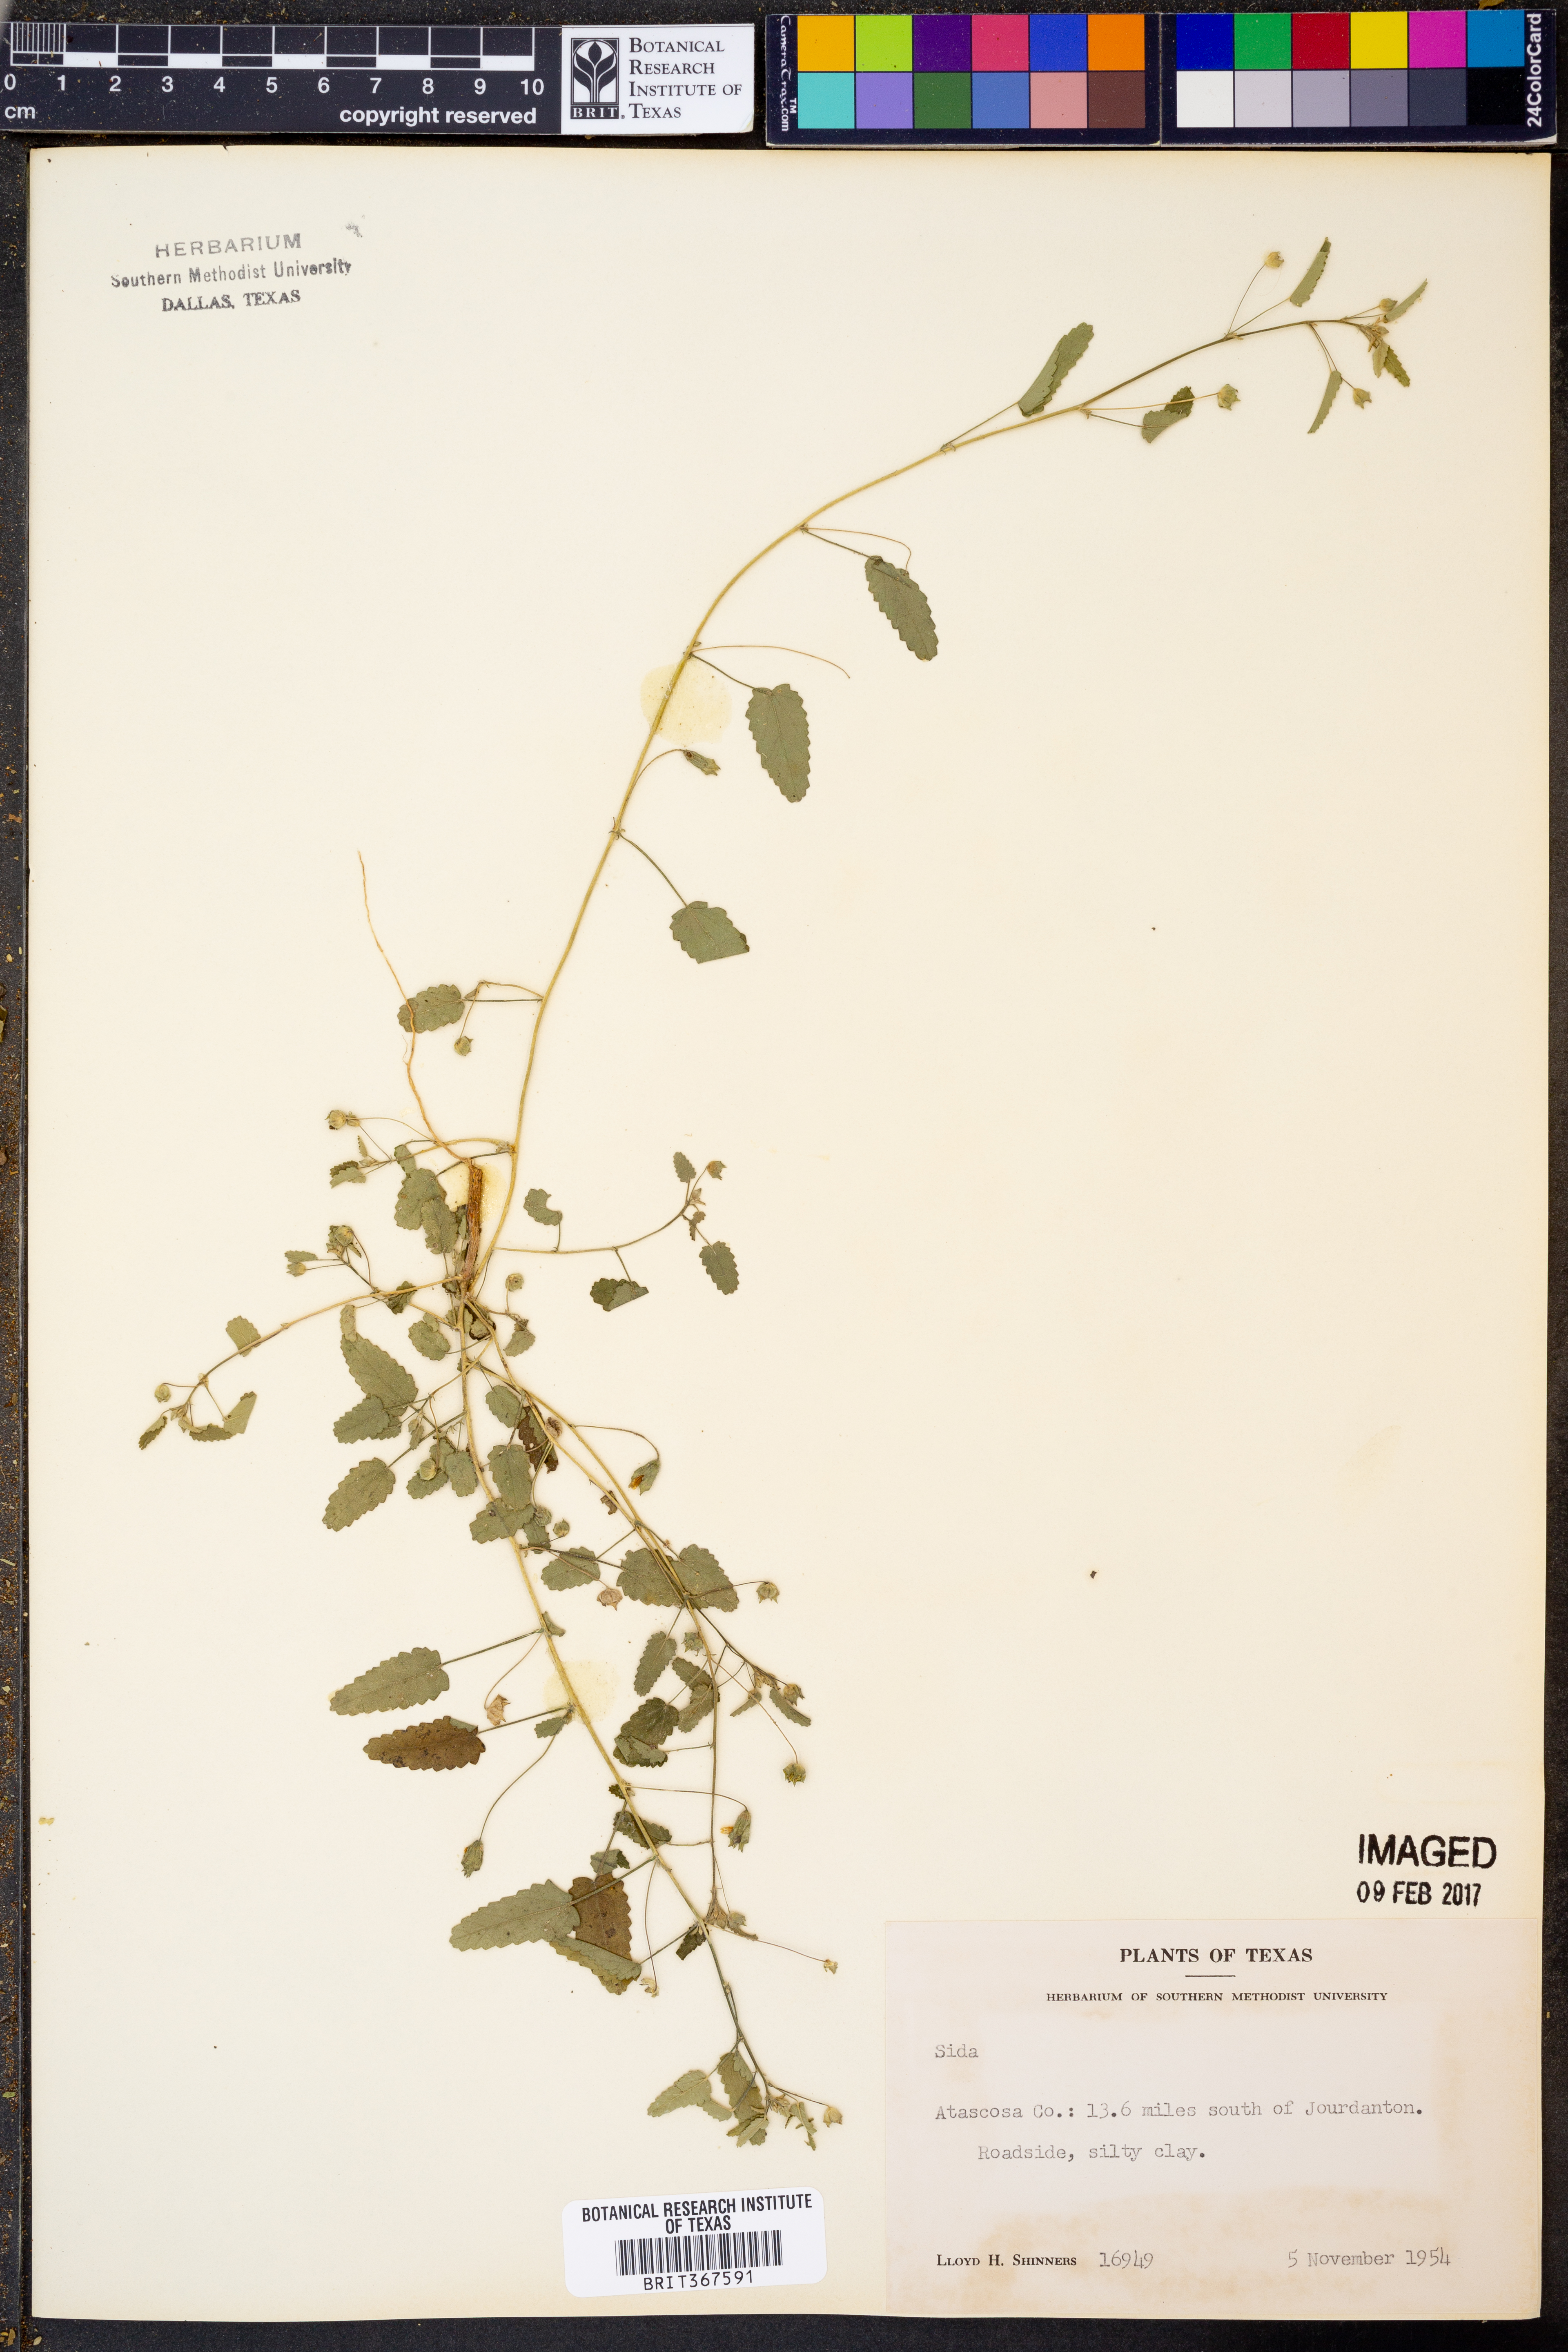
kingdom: Plantae
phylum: Tracheophyta
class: Magnoliopsida
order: Malvales
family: Malvaceae
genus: Sida
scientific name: Sida
